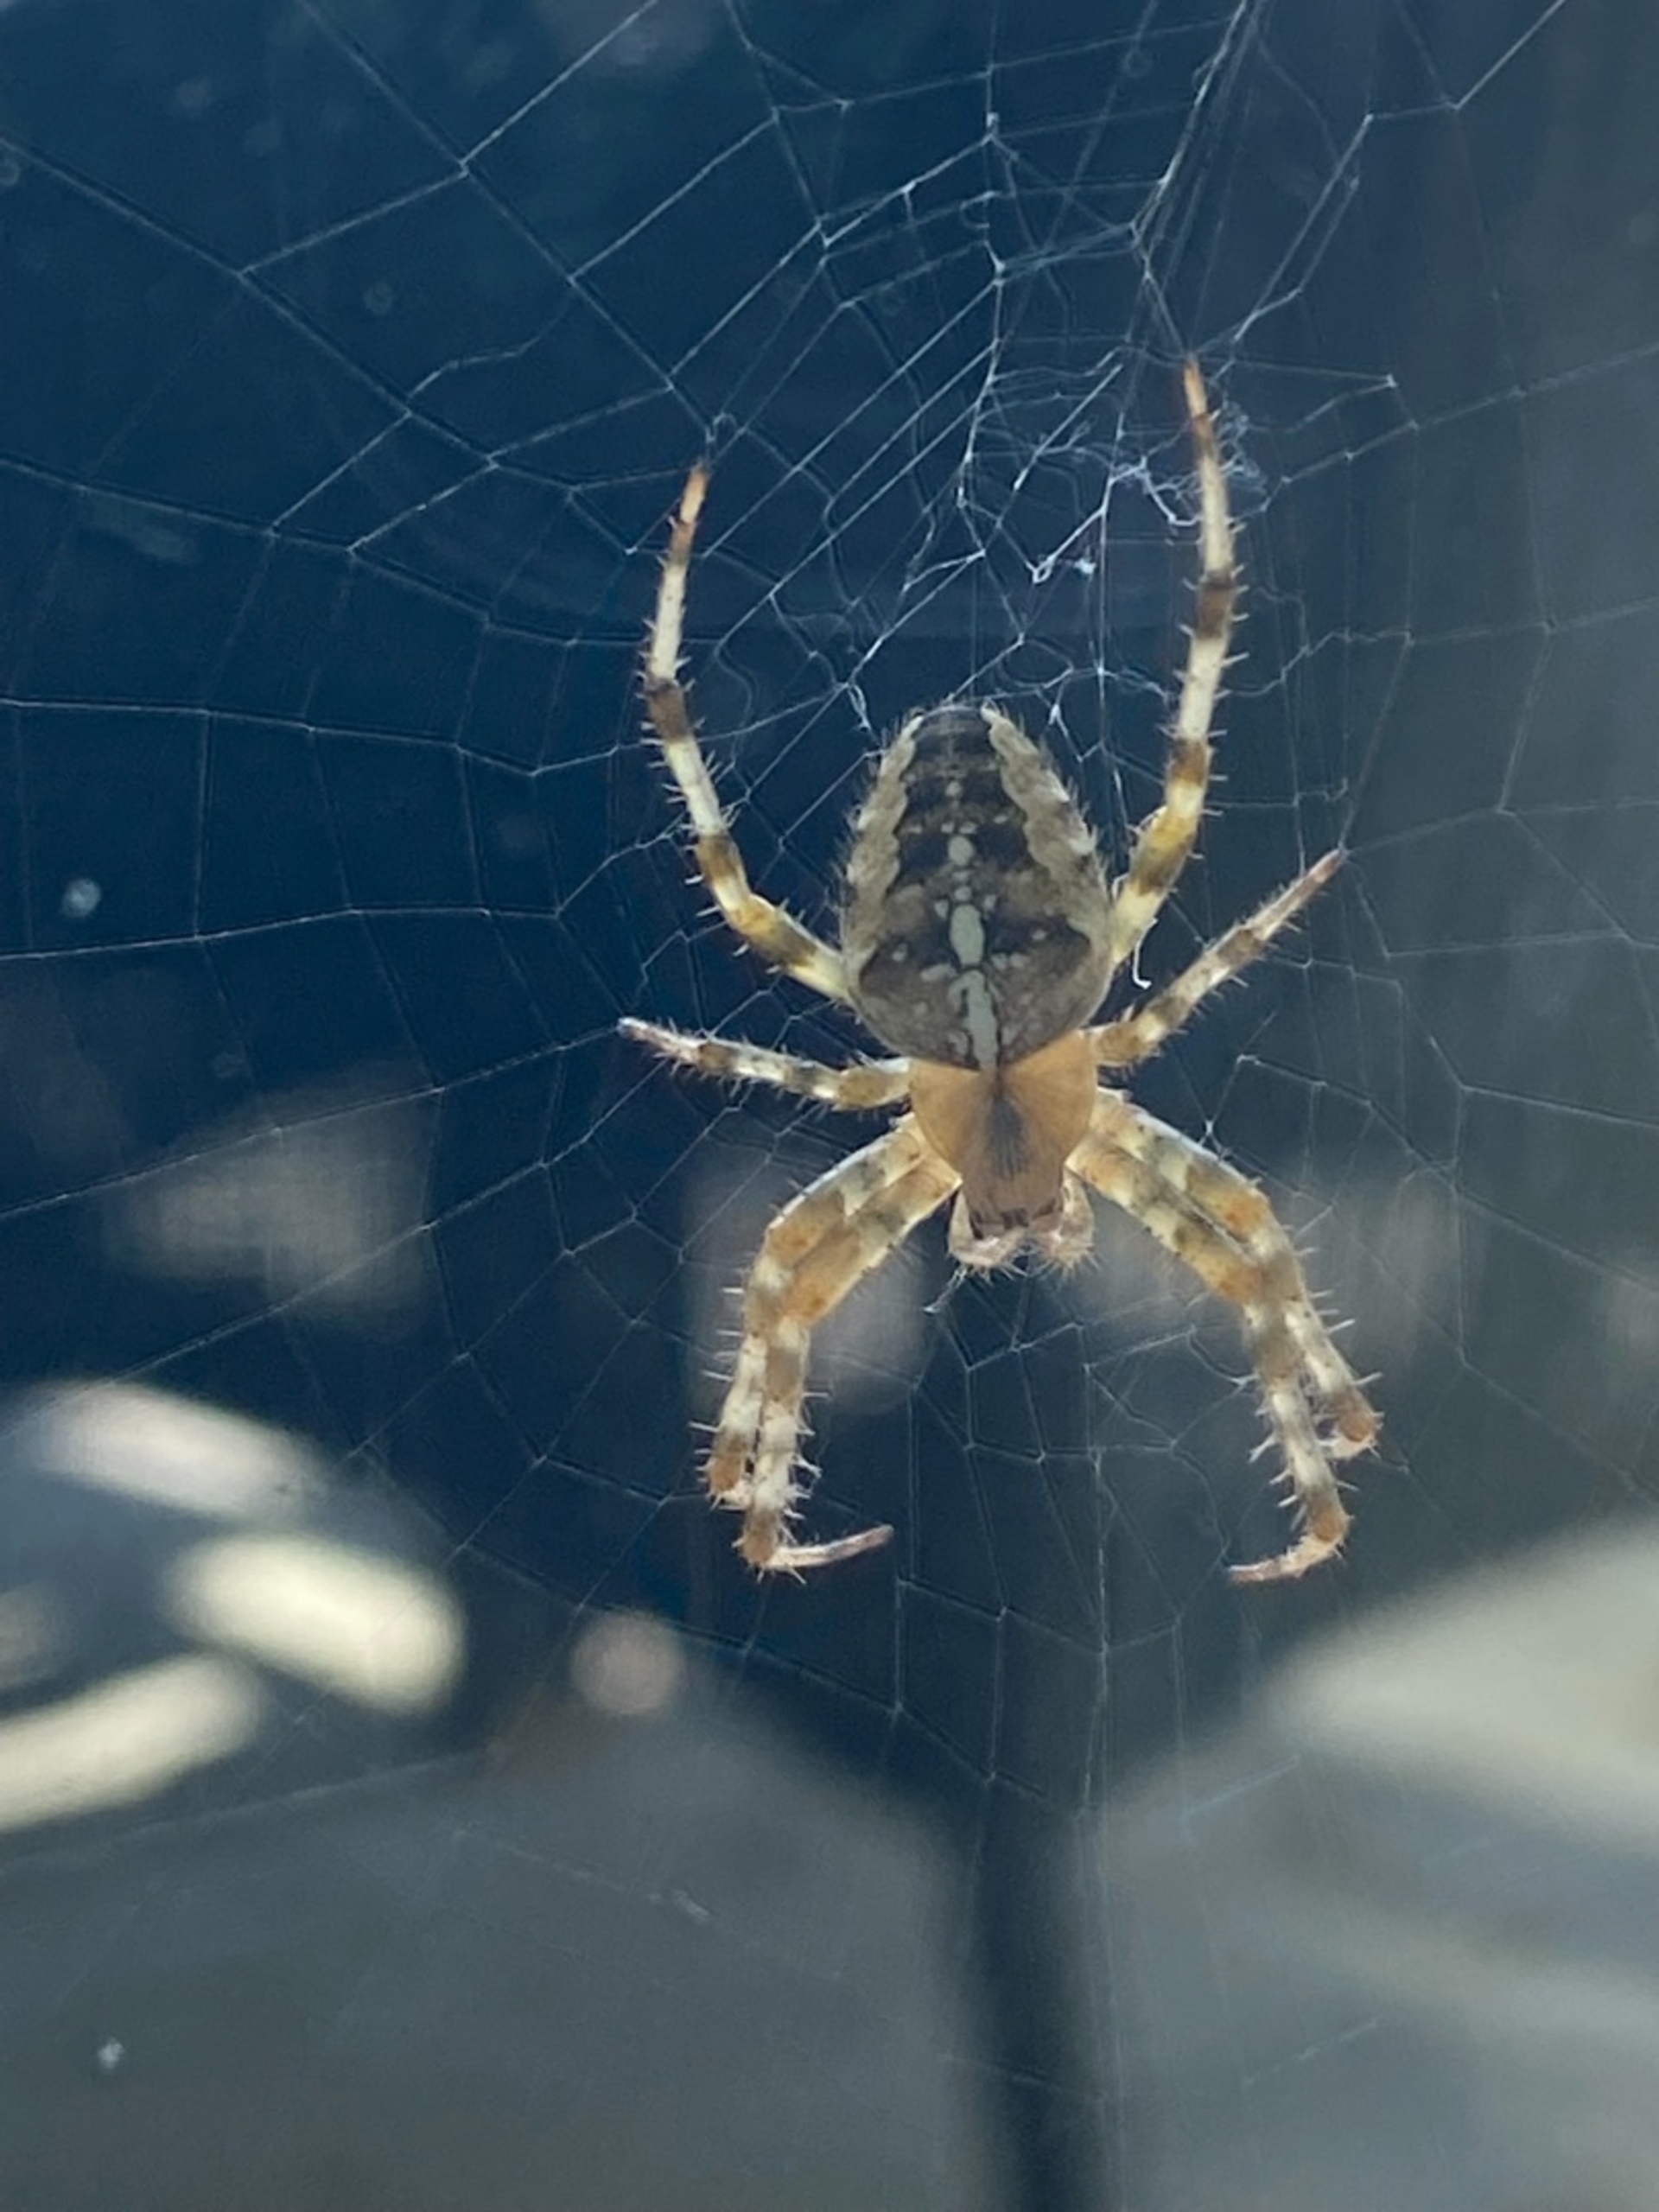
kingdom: Animalia
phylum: Arthropoda
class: Arachnida
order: Araneae
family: Araneidae
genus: Araneus
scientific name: Araneus diadematus
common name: Korsedderkop
